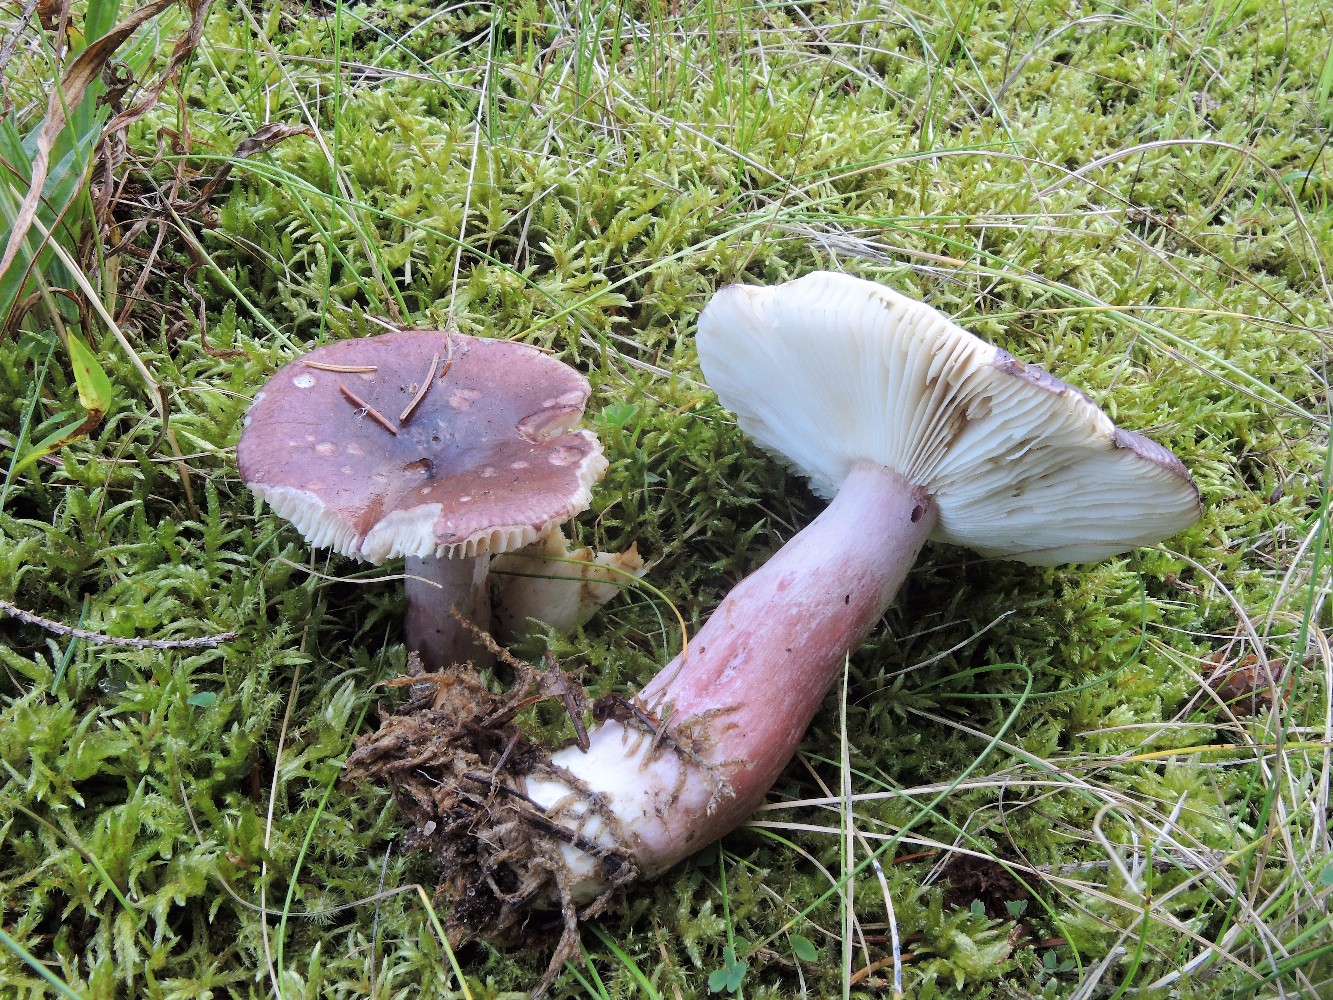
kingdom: Fungi
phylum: Basidiomycota
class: Agaricomycetes
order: Russulales
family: Russulaceae
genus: Russula
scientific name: Russula queletii
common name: Quélets skørhat
